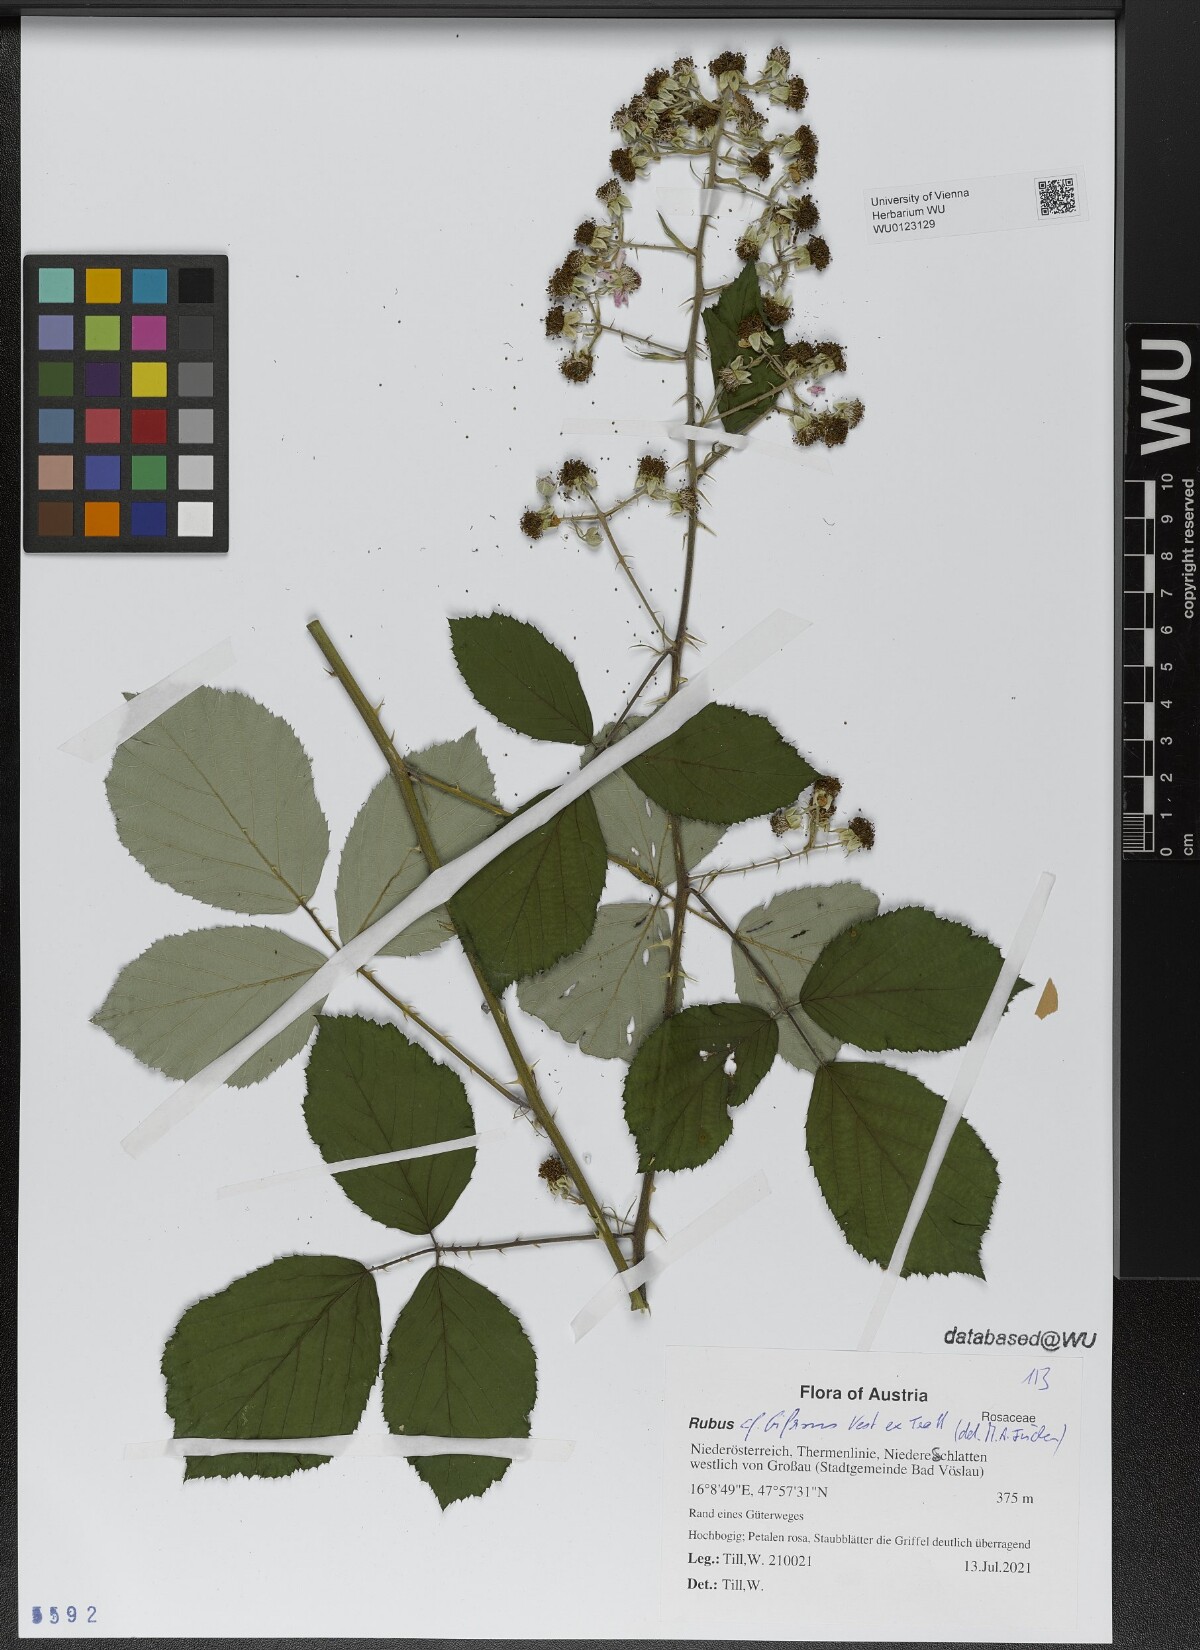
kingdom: Plantae
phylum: Tracheophyta
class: Magnoliopsida
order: Rosales
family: Rosaceae
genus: Rubus
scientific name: Rubus bifrons
